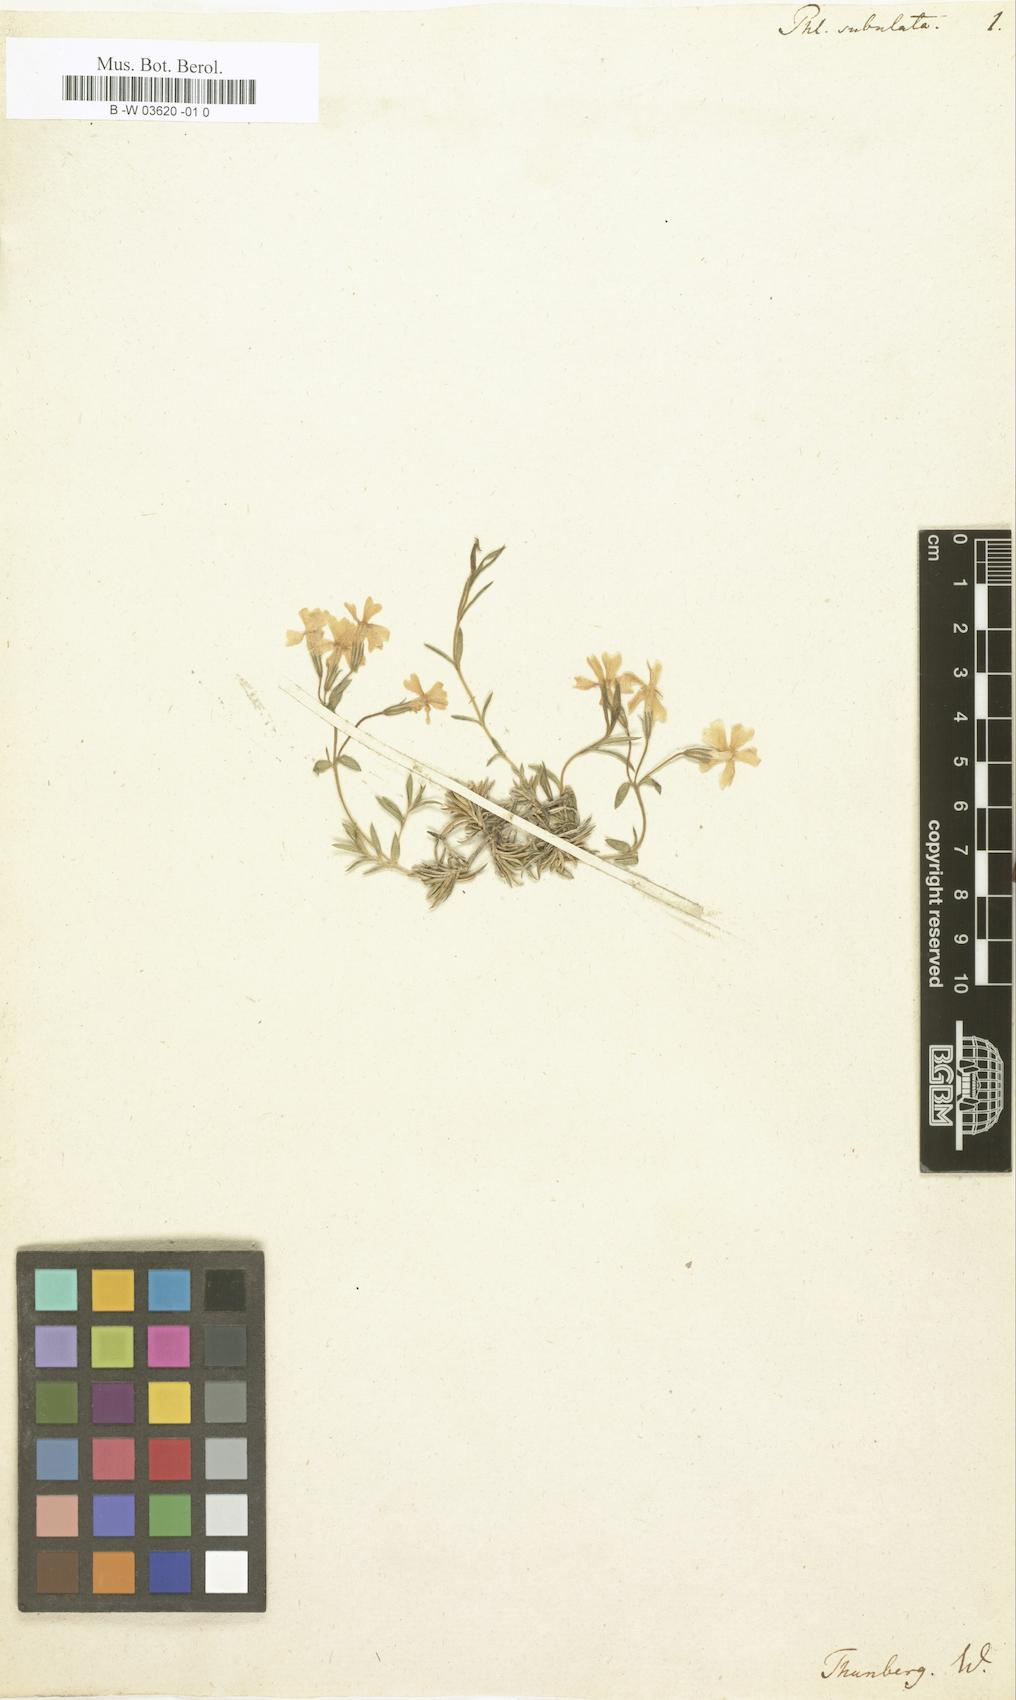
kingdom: Plantae
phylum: Tracheophyta
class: Magnoliopsida
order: Ericales
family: Polemoniaceae
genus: Phlox
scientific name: Phlox subulata
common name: Moss phlox
